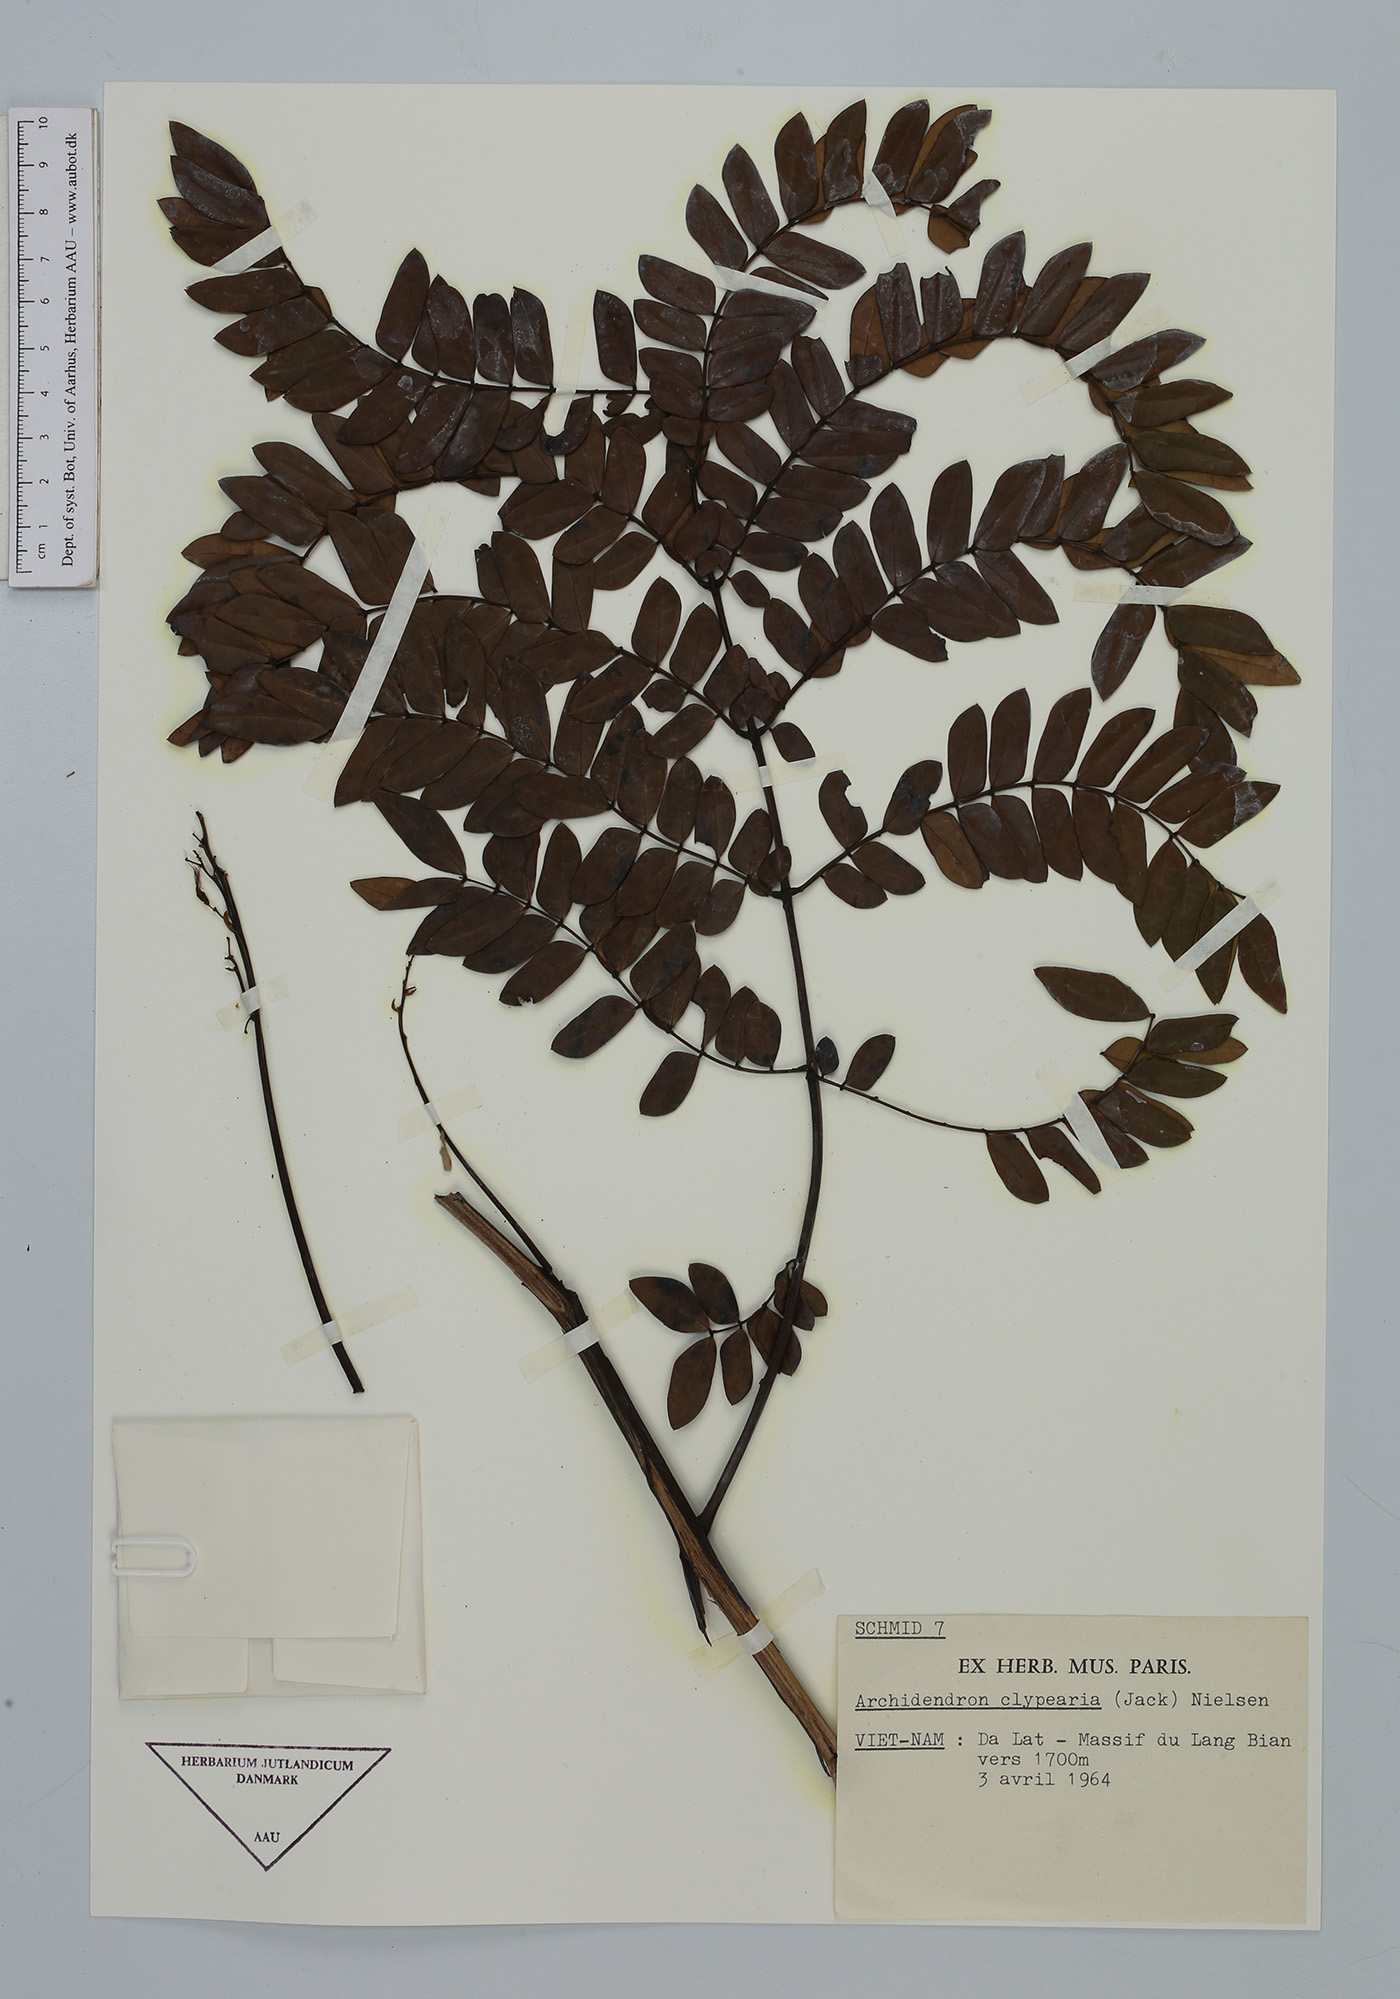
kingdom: Plantae
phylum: Tracheophyta
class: Magnoliopsida
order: Fabales
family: Fabaceae
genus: Archidendron
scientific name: Archidendron clypearia
